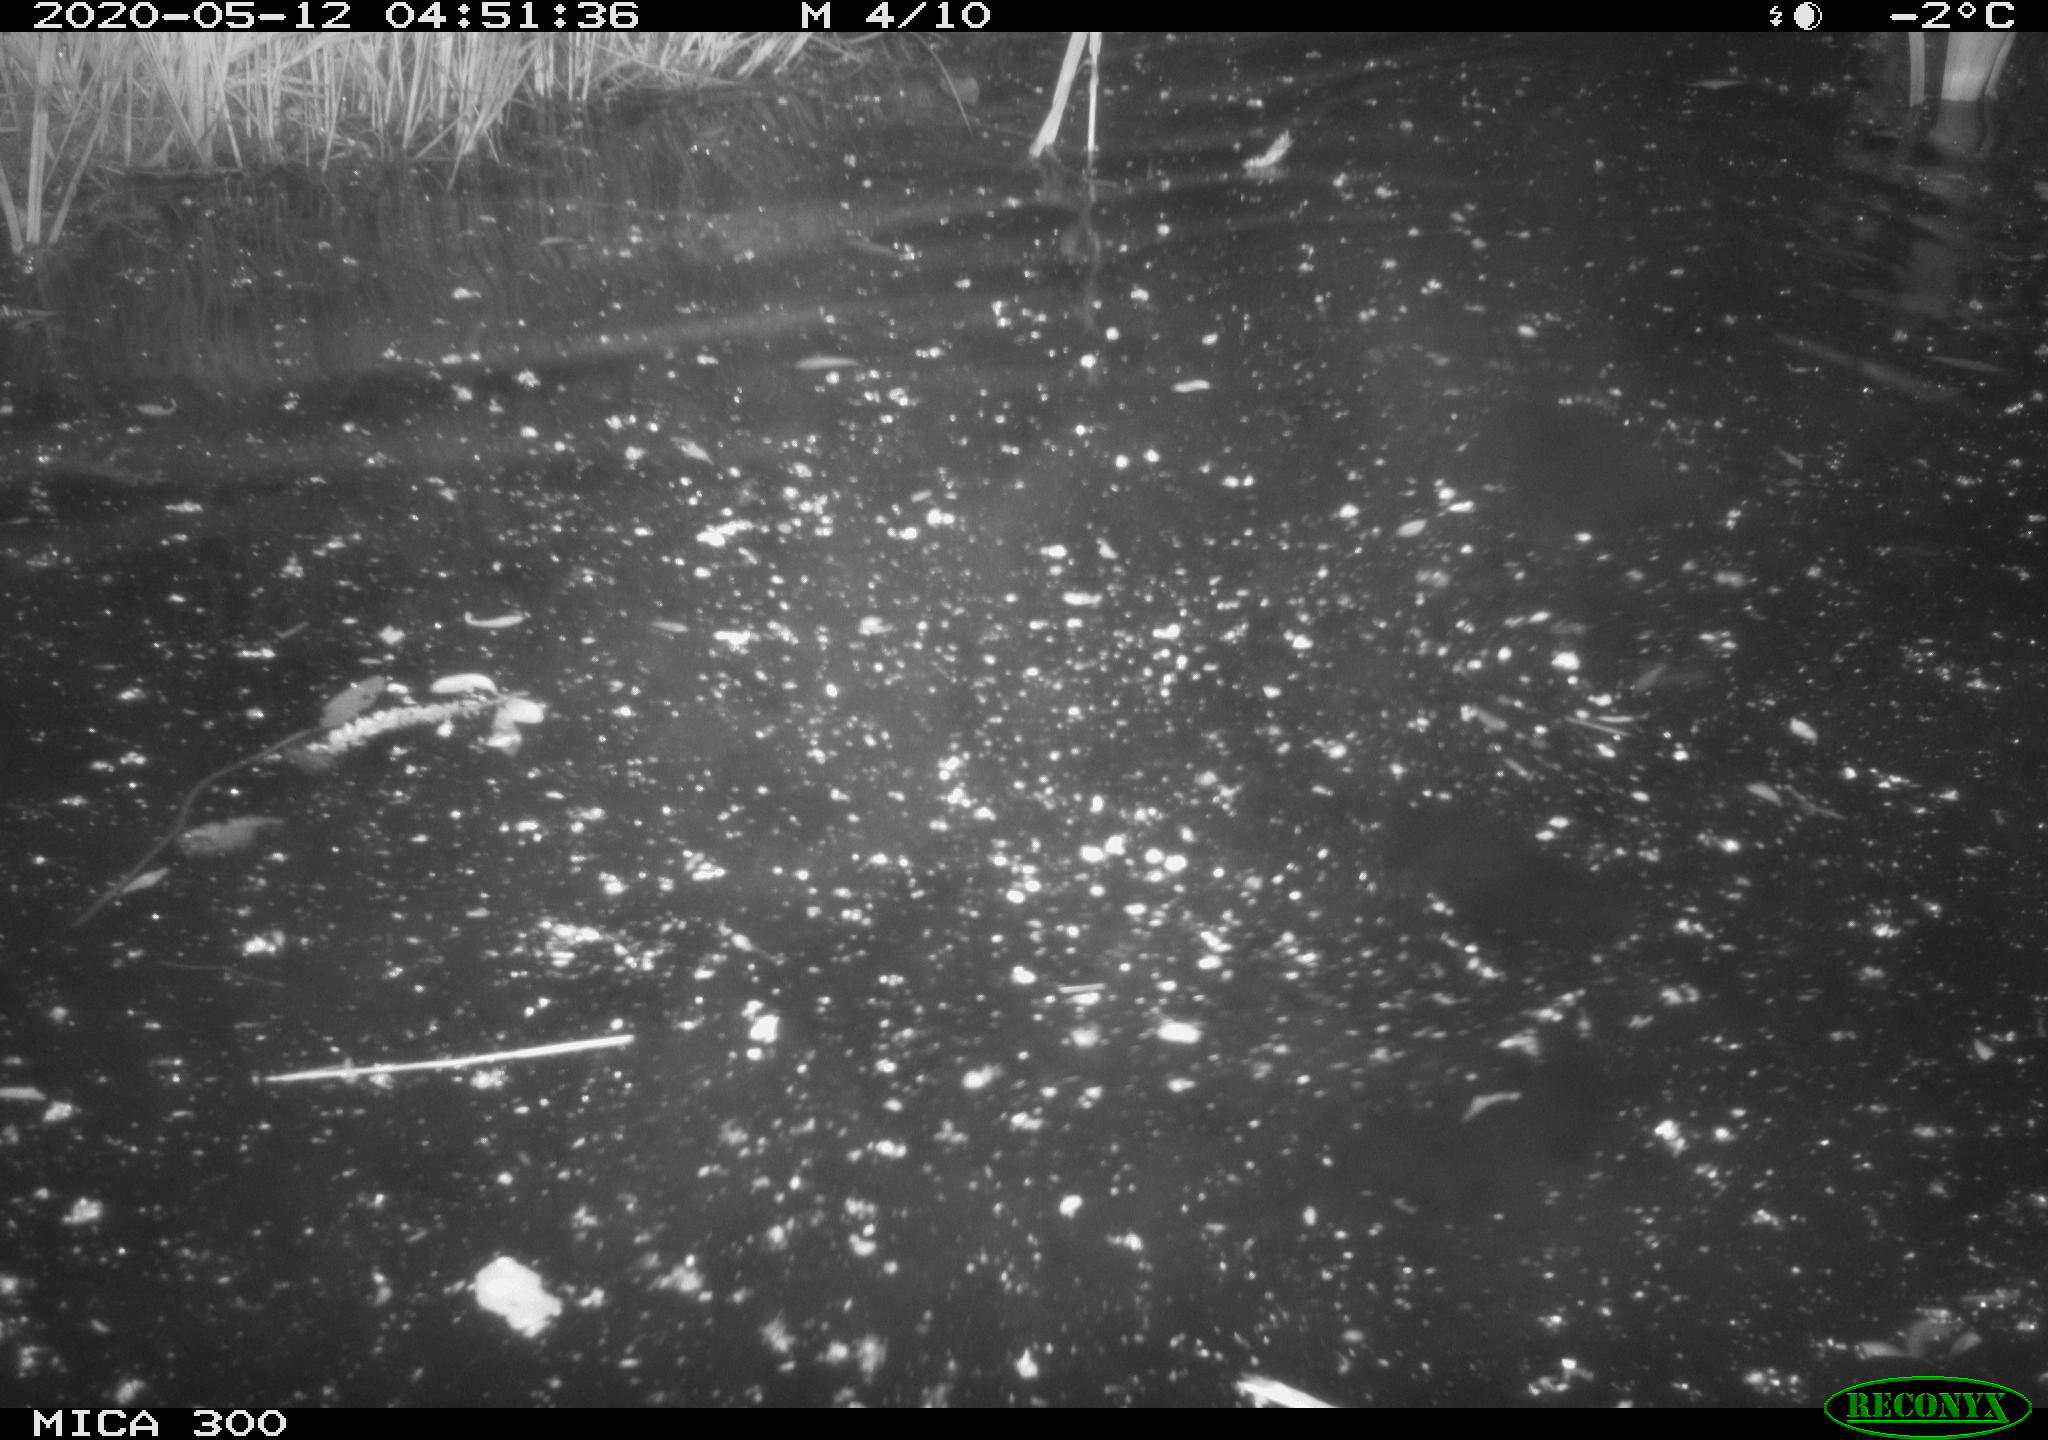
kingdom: Animalia
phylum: Chordata
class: Mammalia
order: Rodentia
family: Castoridae
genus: Castor
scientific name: Castor fiber
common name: Eurasian beaver
